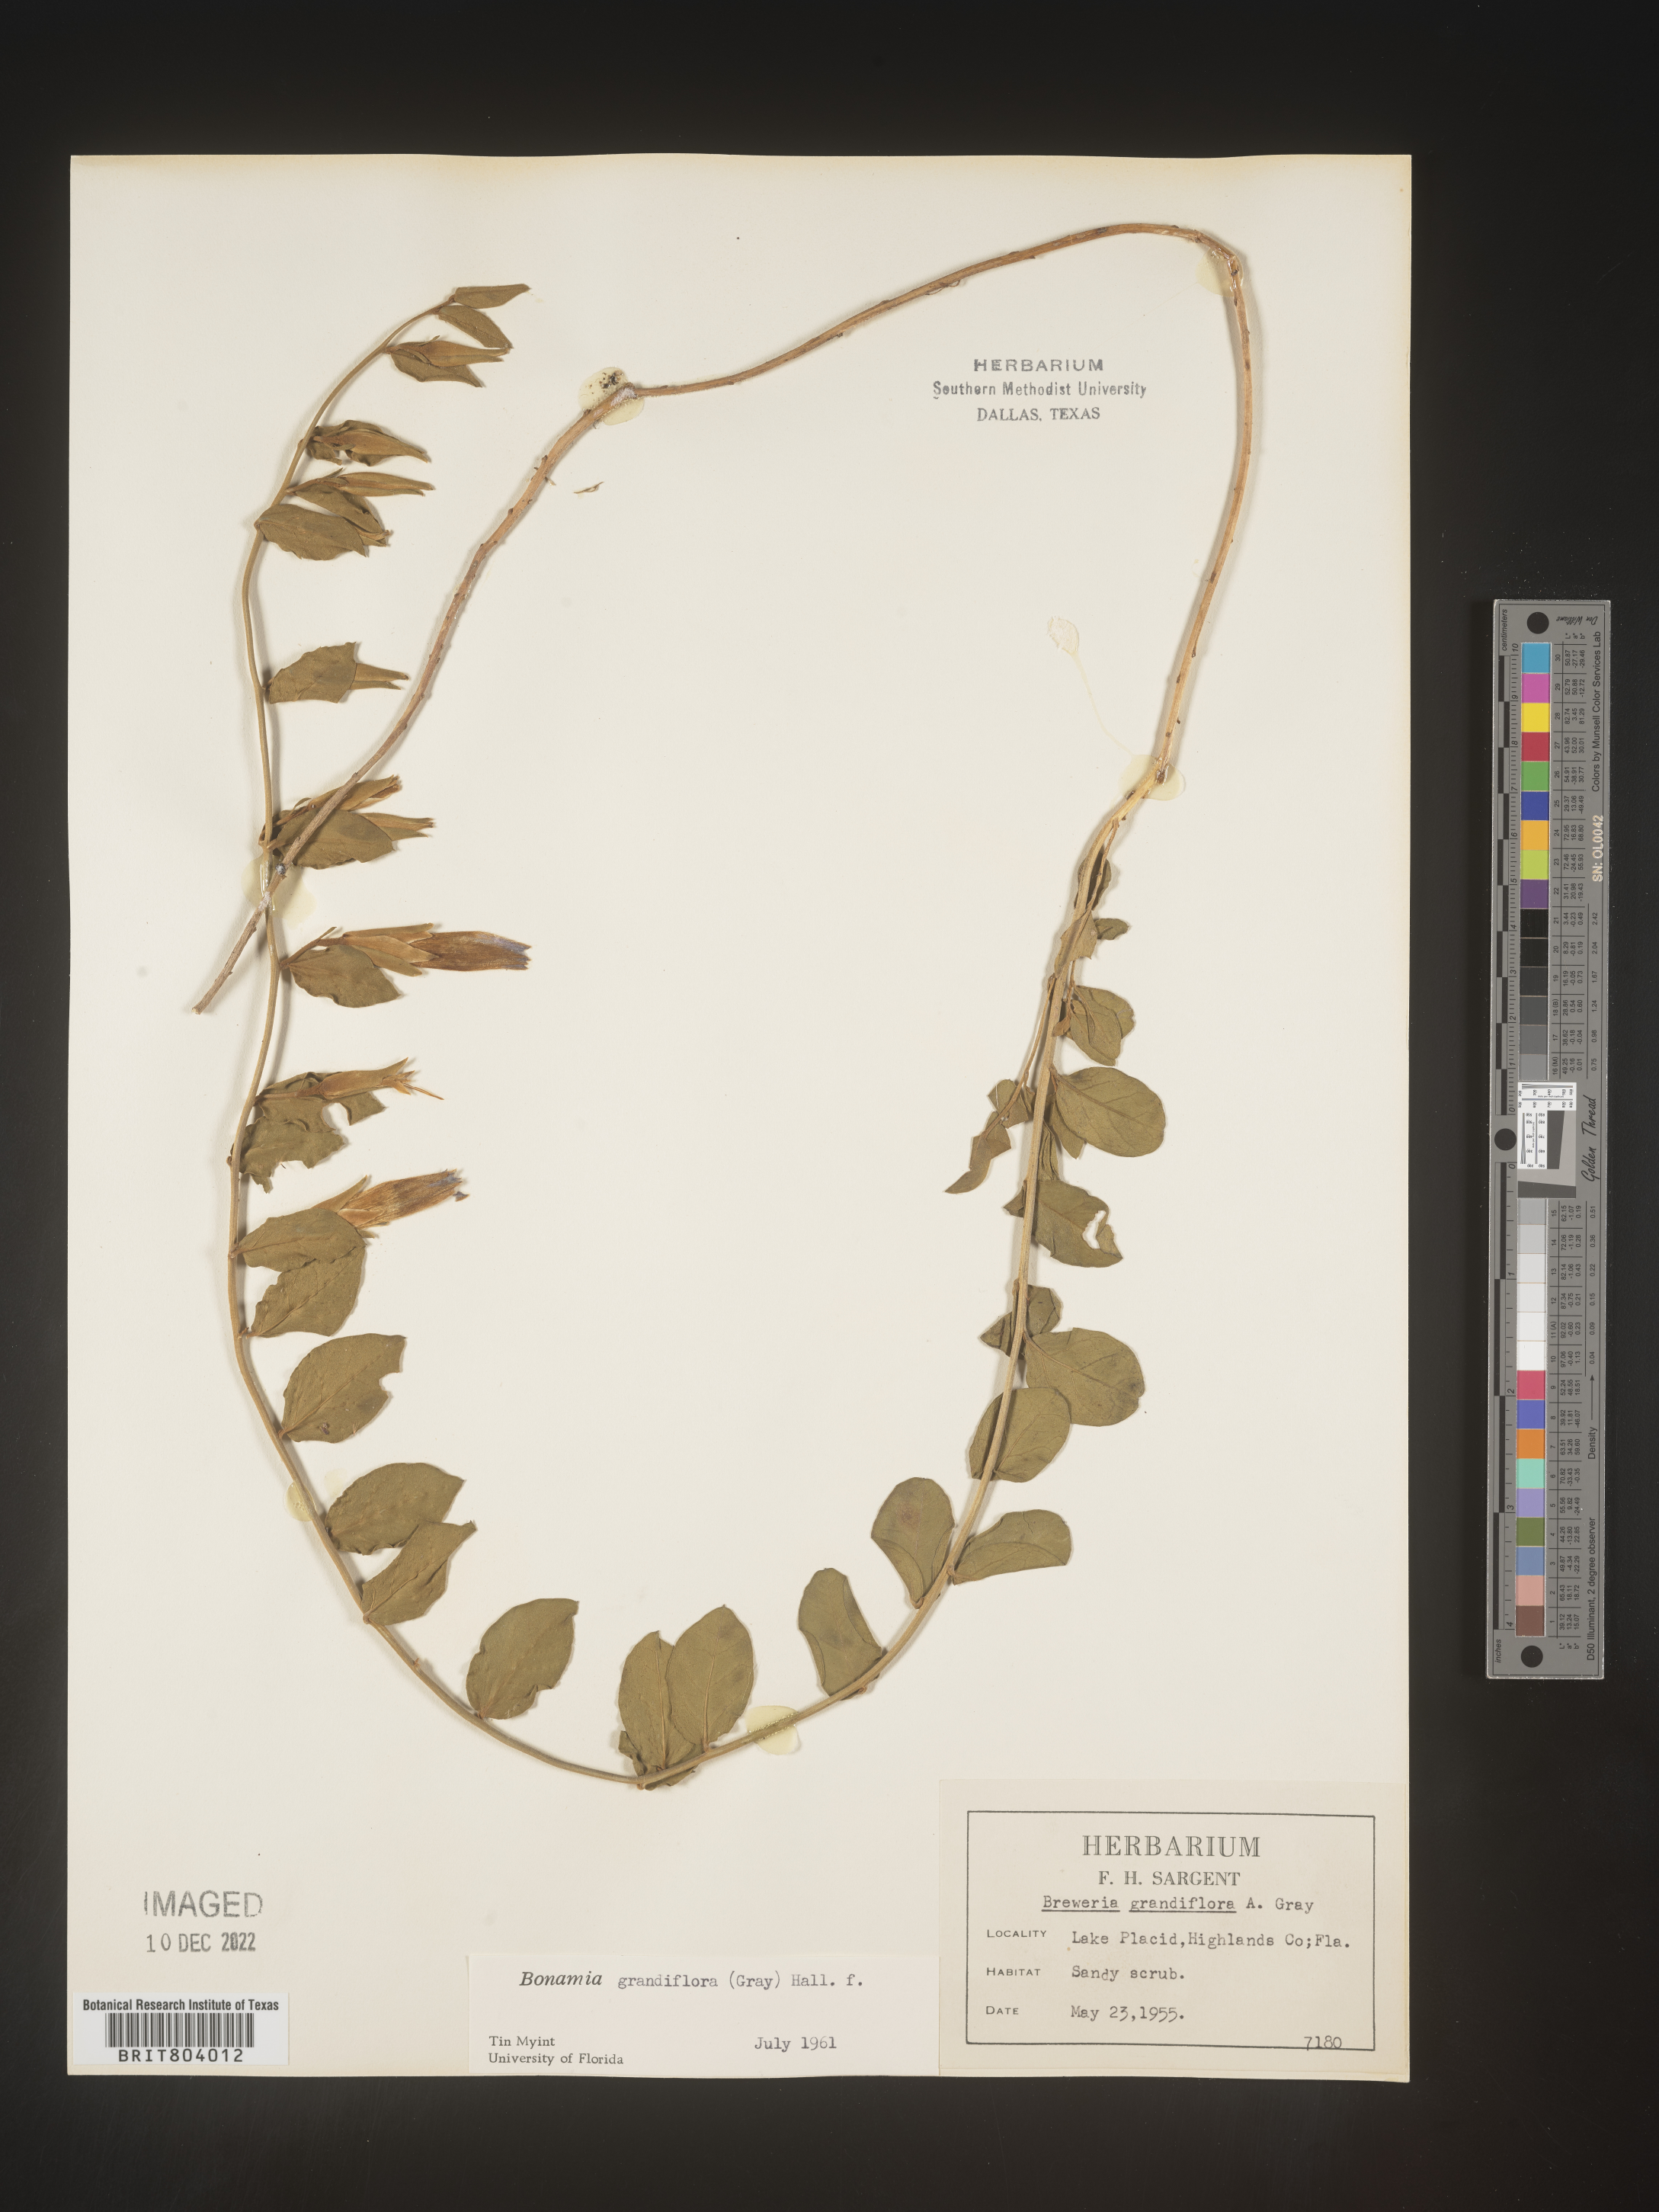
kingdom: Plantae
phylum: Tracheophyta
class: Magnoliopsida
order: Solanales
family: Convolvulaceae
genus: Bonamia
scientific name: Bonamia
